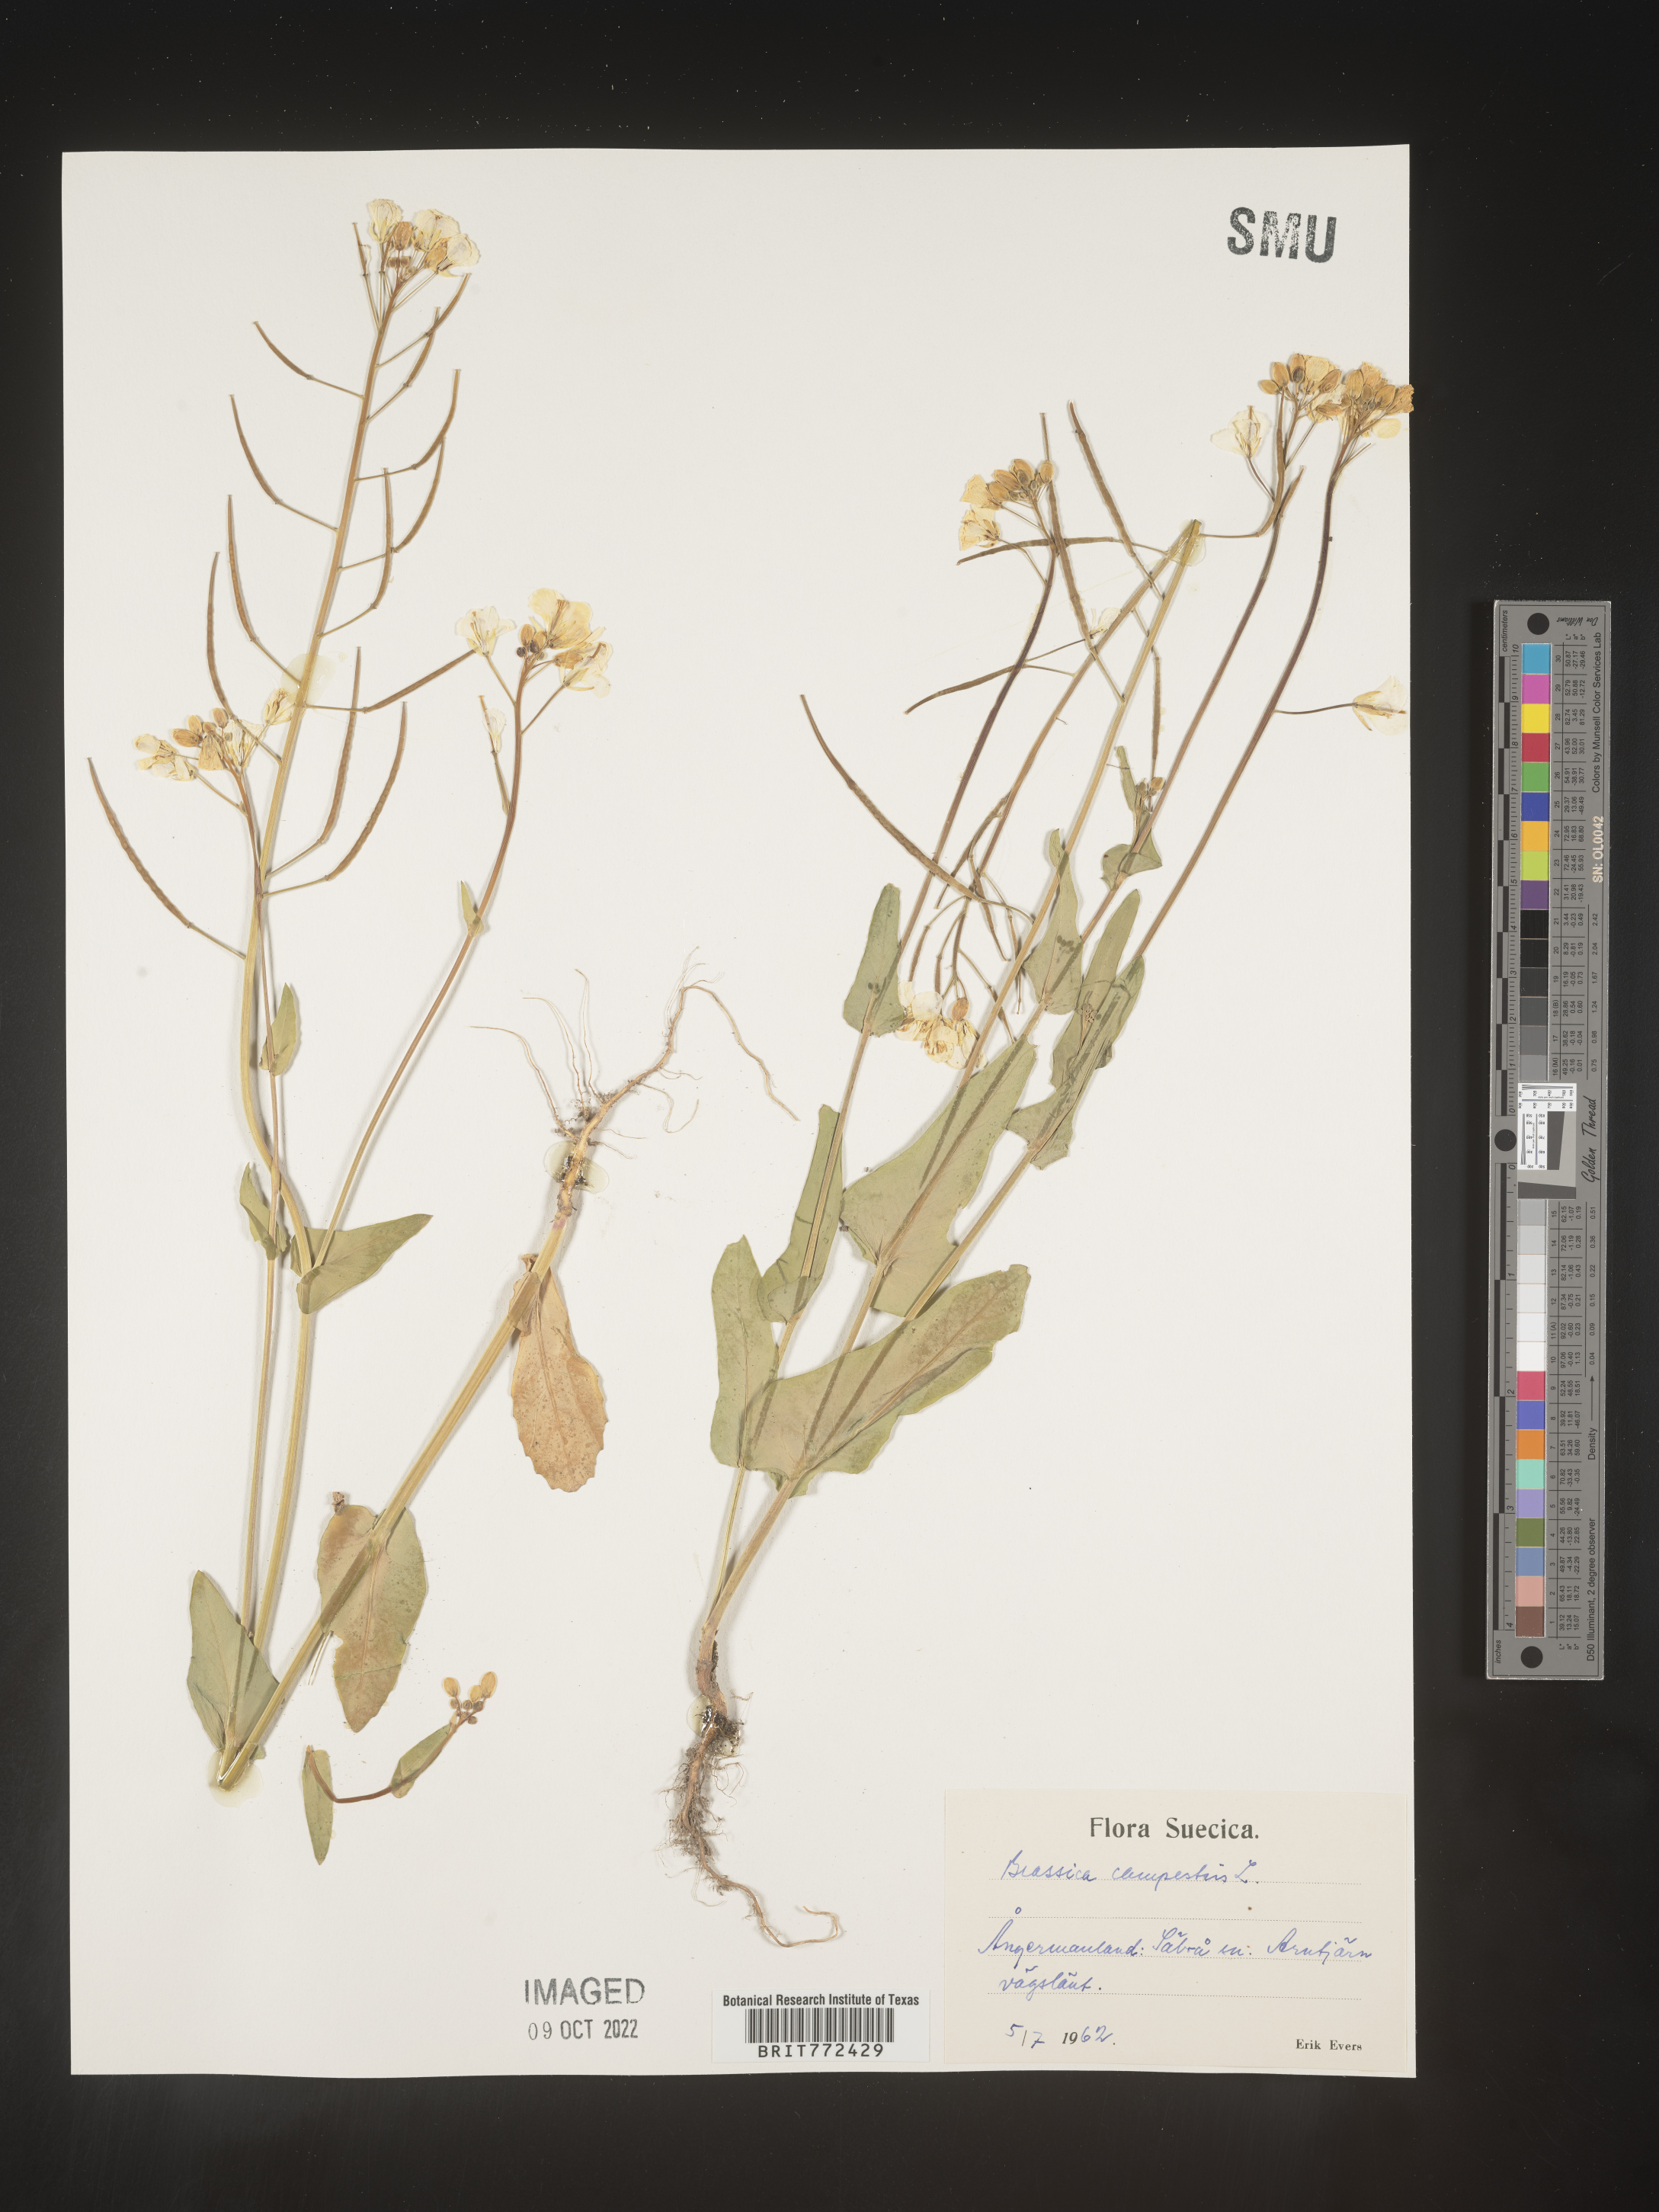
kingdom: Plantae
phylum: Tracheophyta
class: Magnoliopsida
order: Brassicales
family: Brassicaceae
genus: Brassica
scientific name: Brassica
